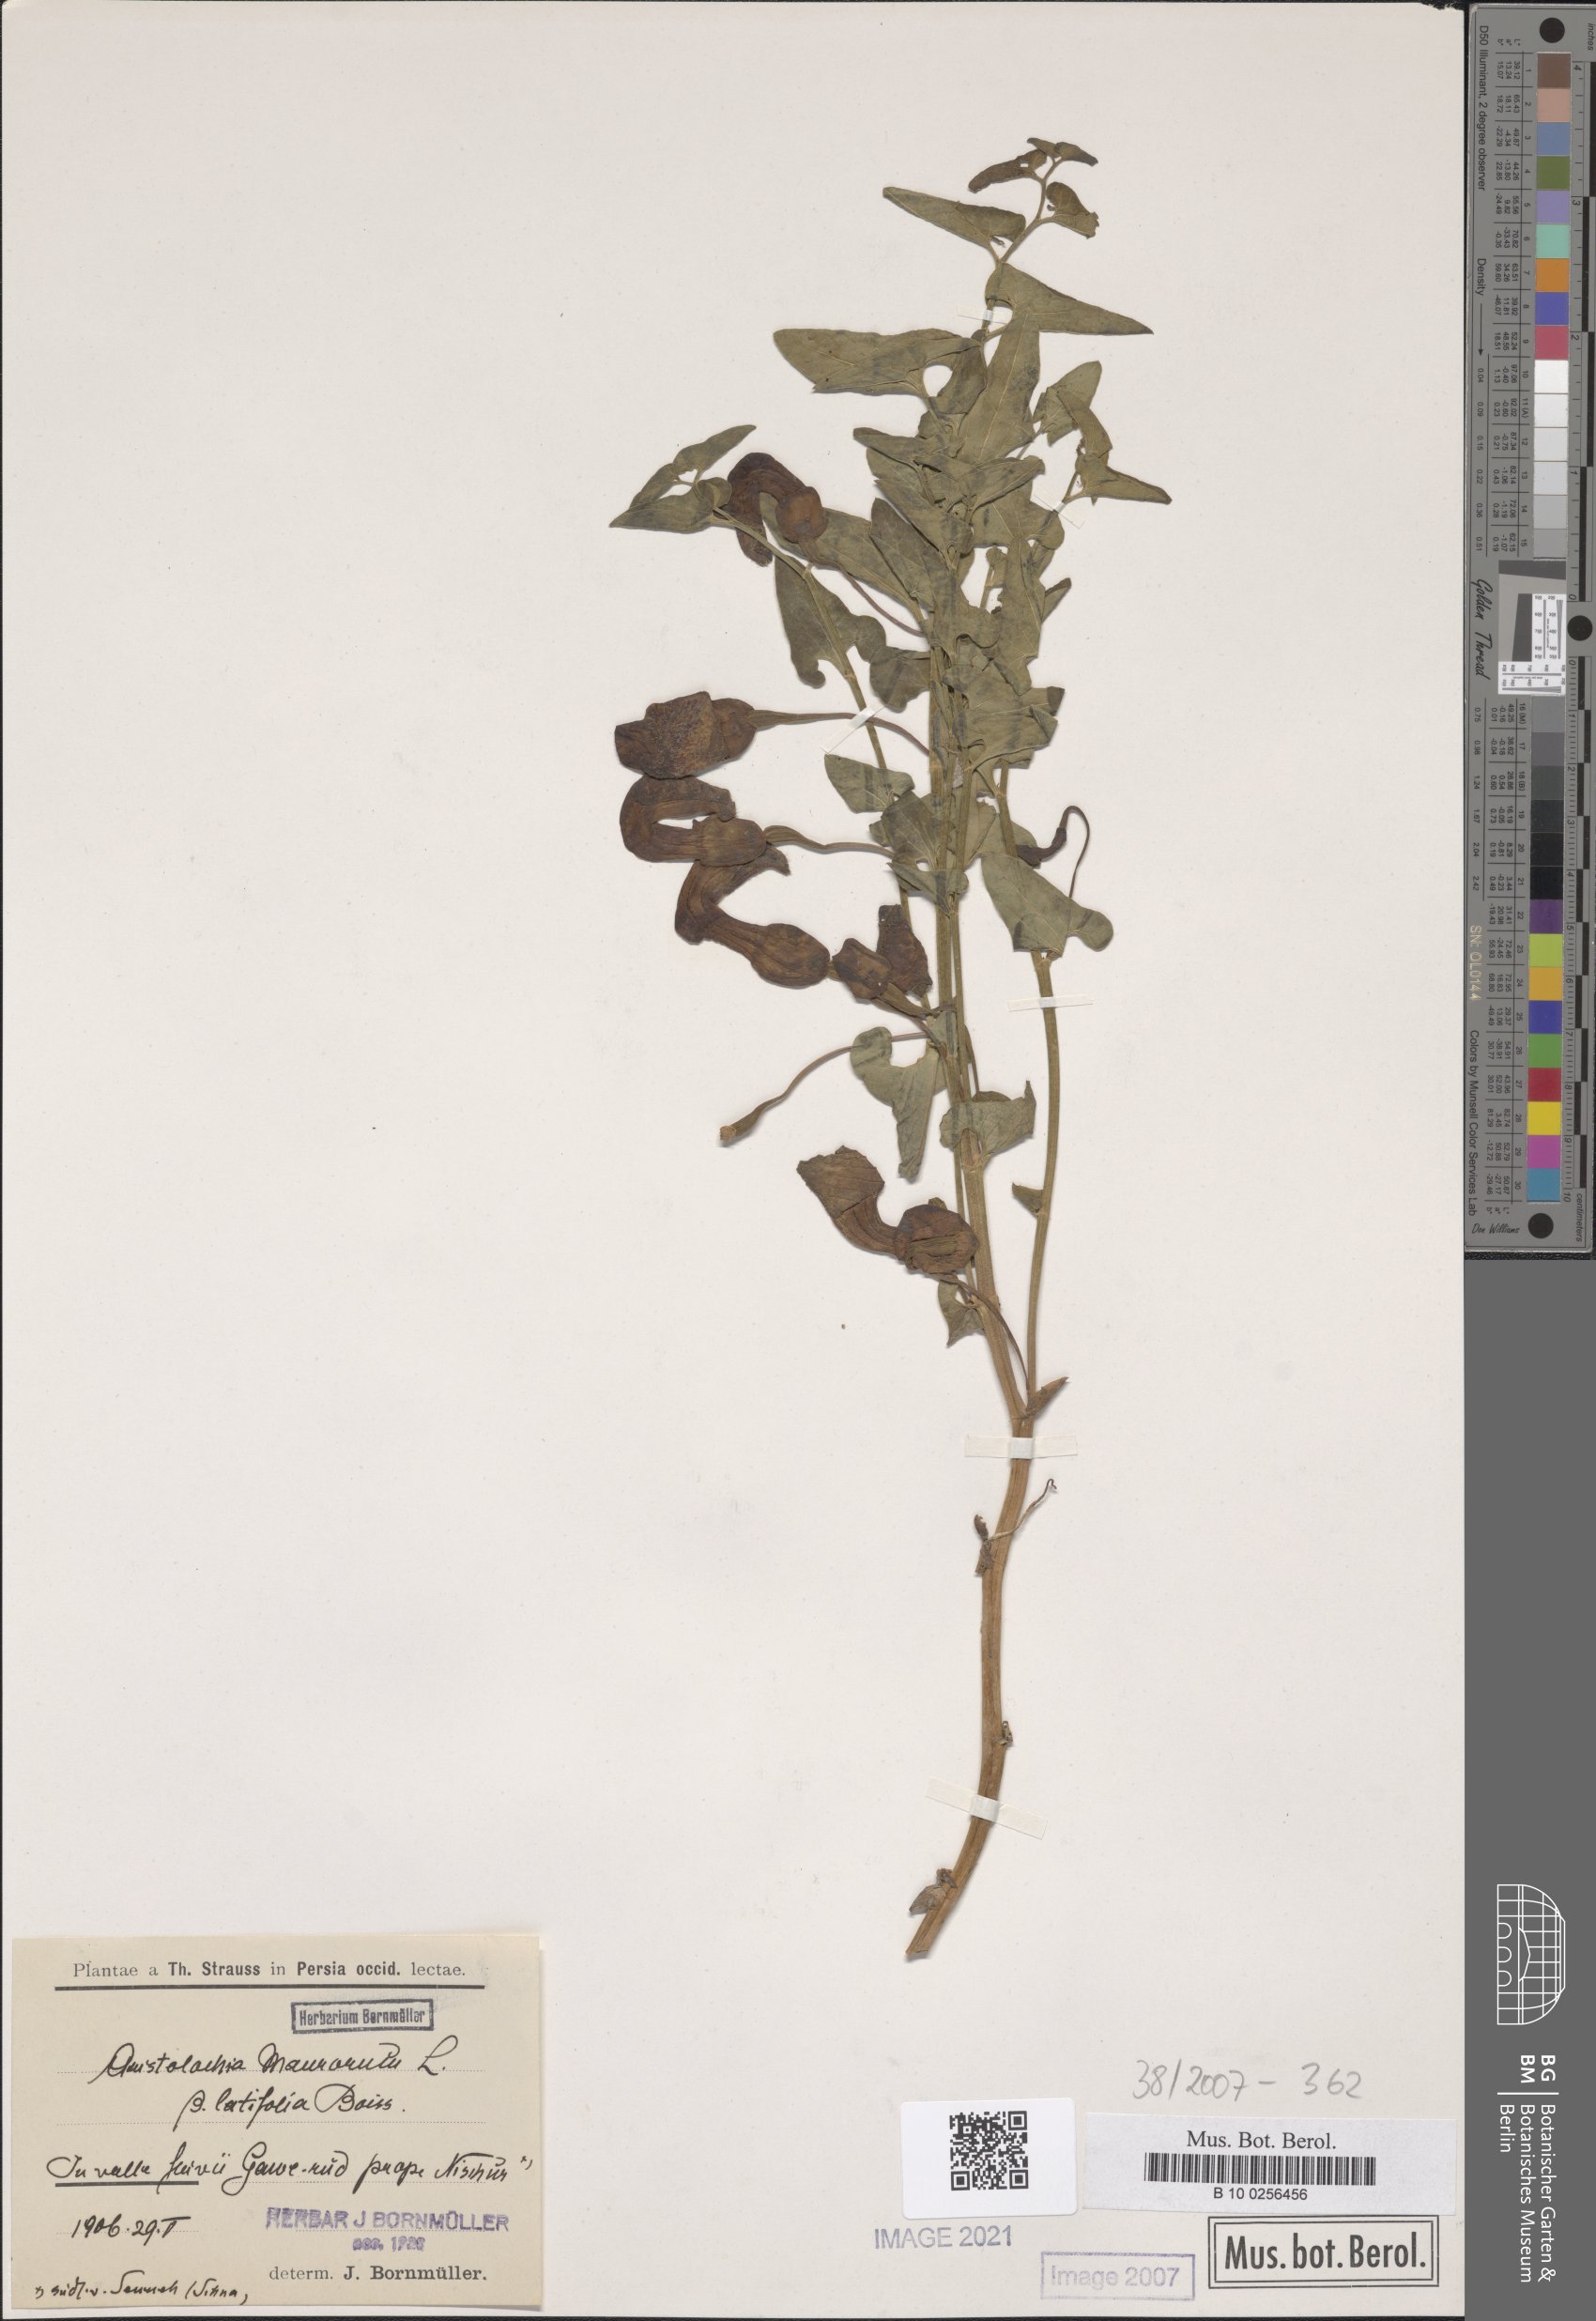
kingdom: Plantae
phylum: Tracheophyta
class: Magnoliopsida
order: Piperales
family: Aristolochiaceae
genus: Aristolochia
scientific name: Aristolochia cilicica
